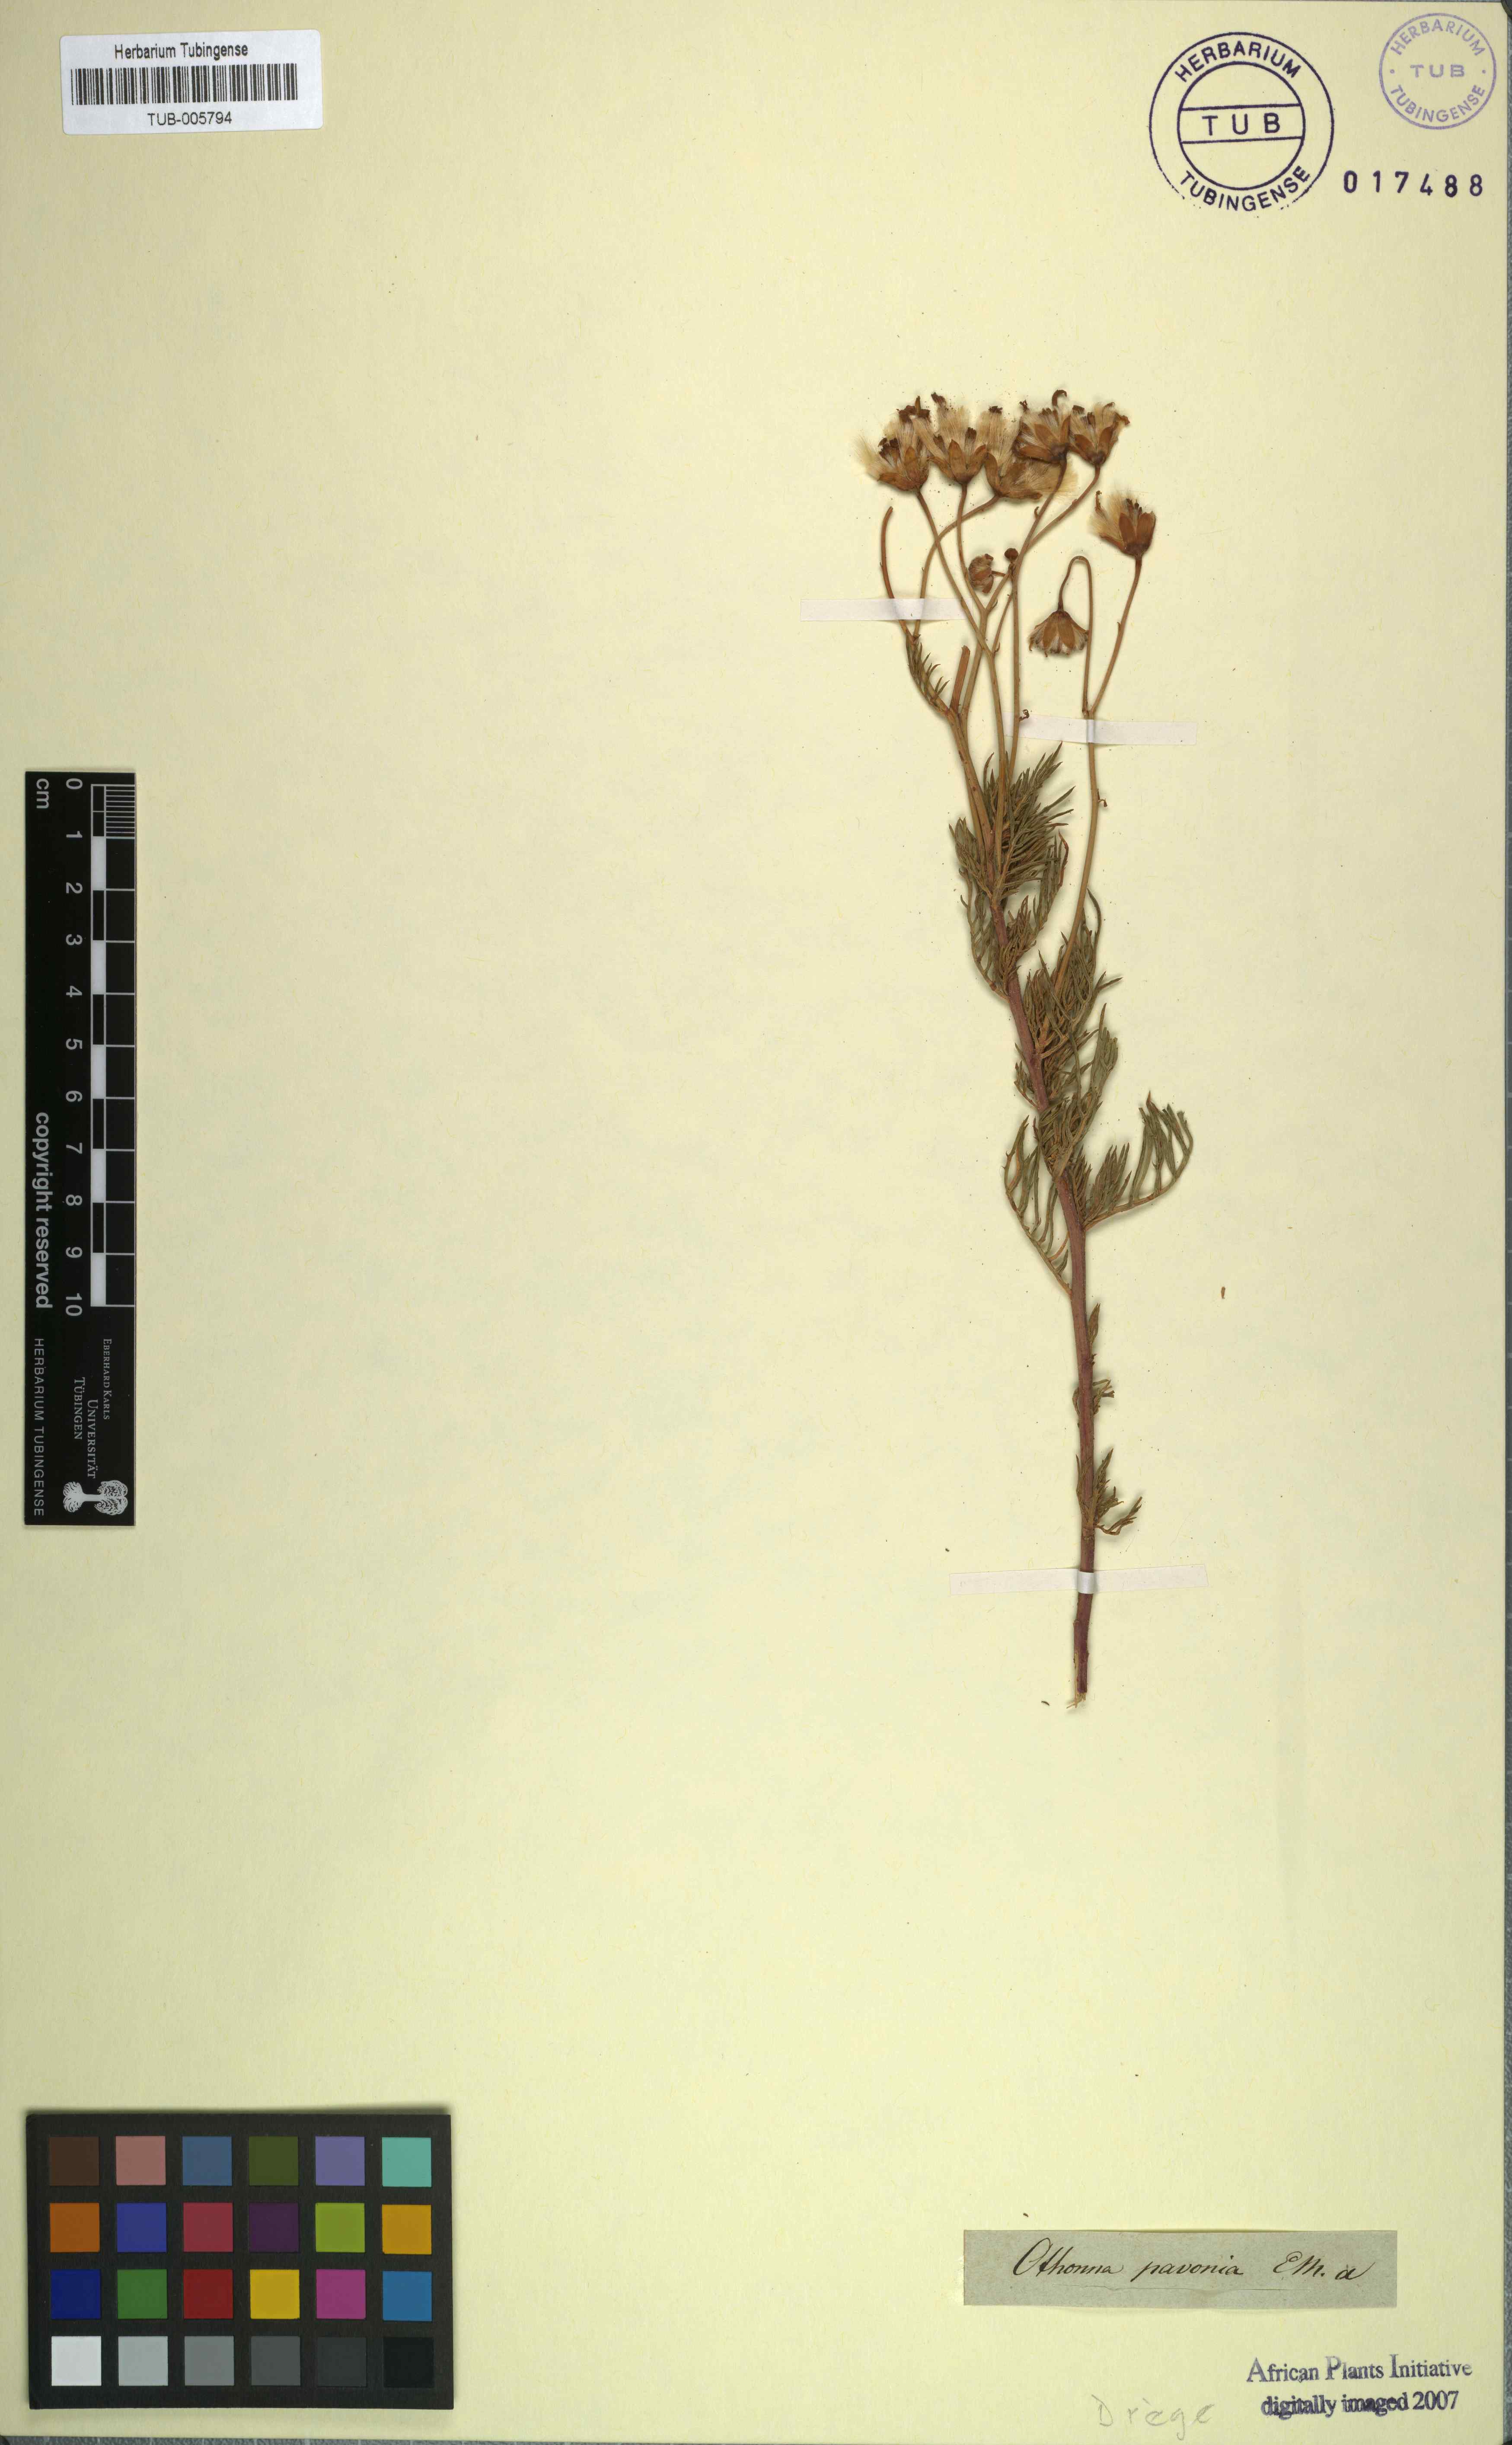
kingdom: Plantae
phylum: Tracheophyta
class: Magnoliopsida
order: Asterales
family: Asteraceae
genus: Othonna
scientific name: Othonna pavonia
